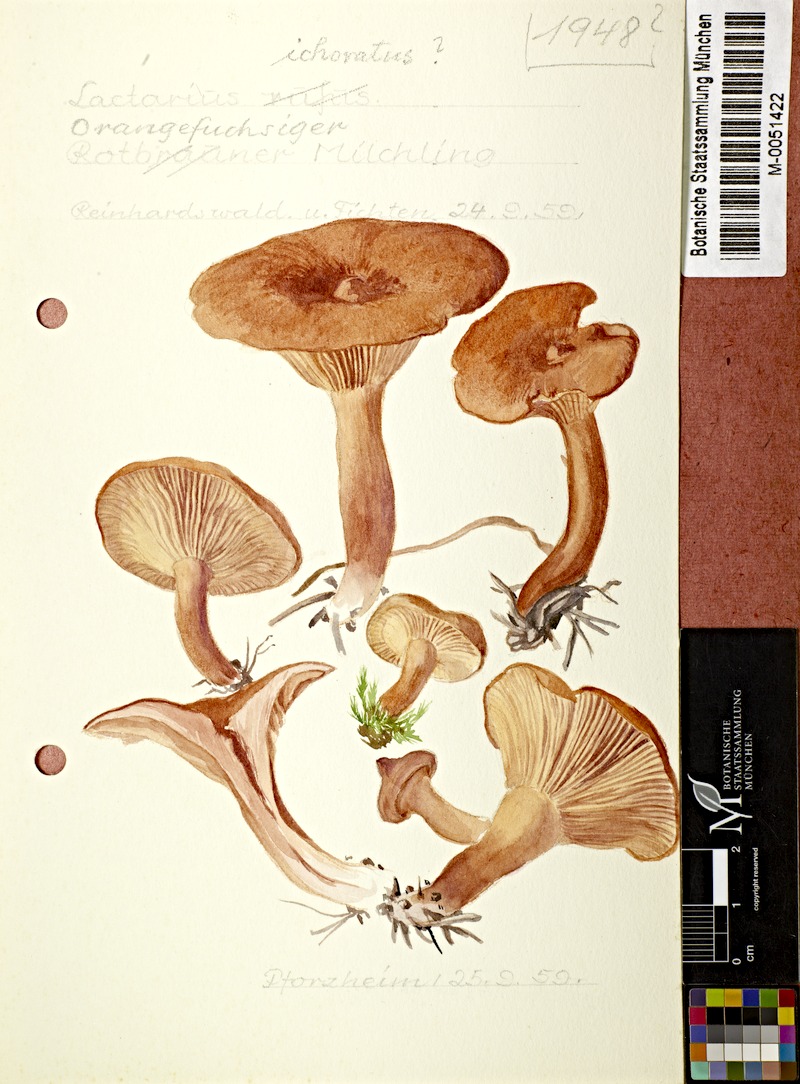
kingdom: Fungi
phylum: Basidiomycota
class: Agaricomycetes
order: Russulales
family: Russulaceae
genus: Lactarius
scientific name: Lactarius rufus
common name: Rufous milk-cap
